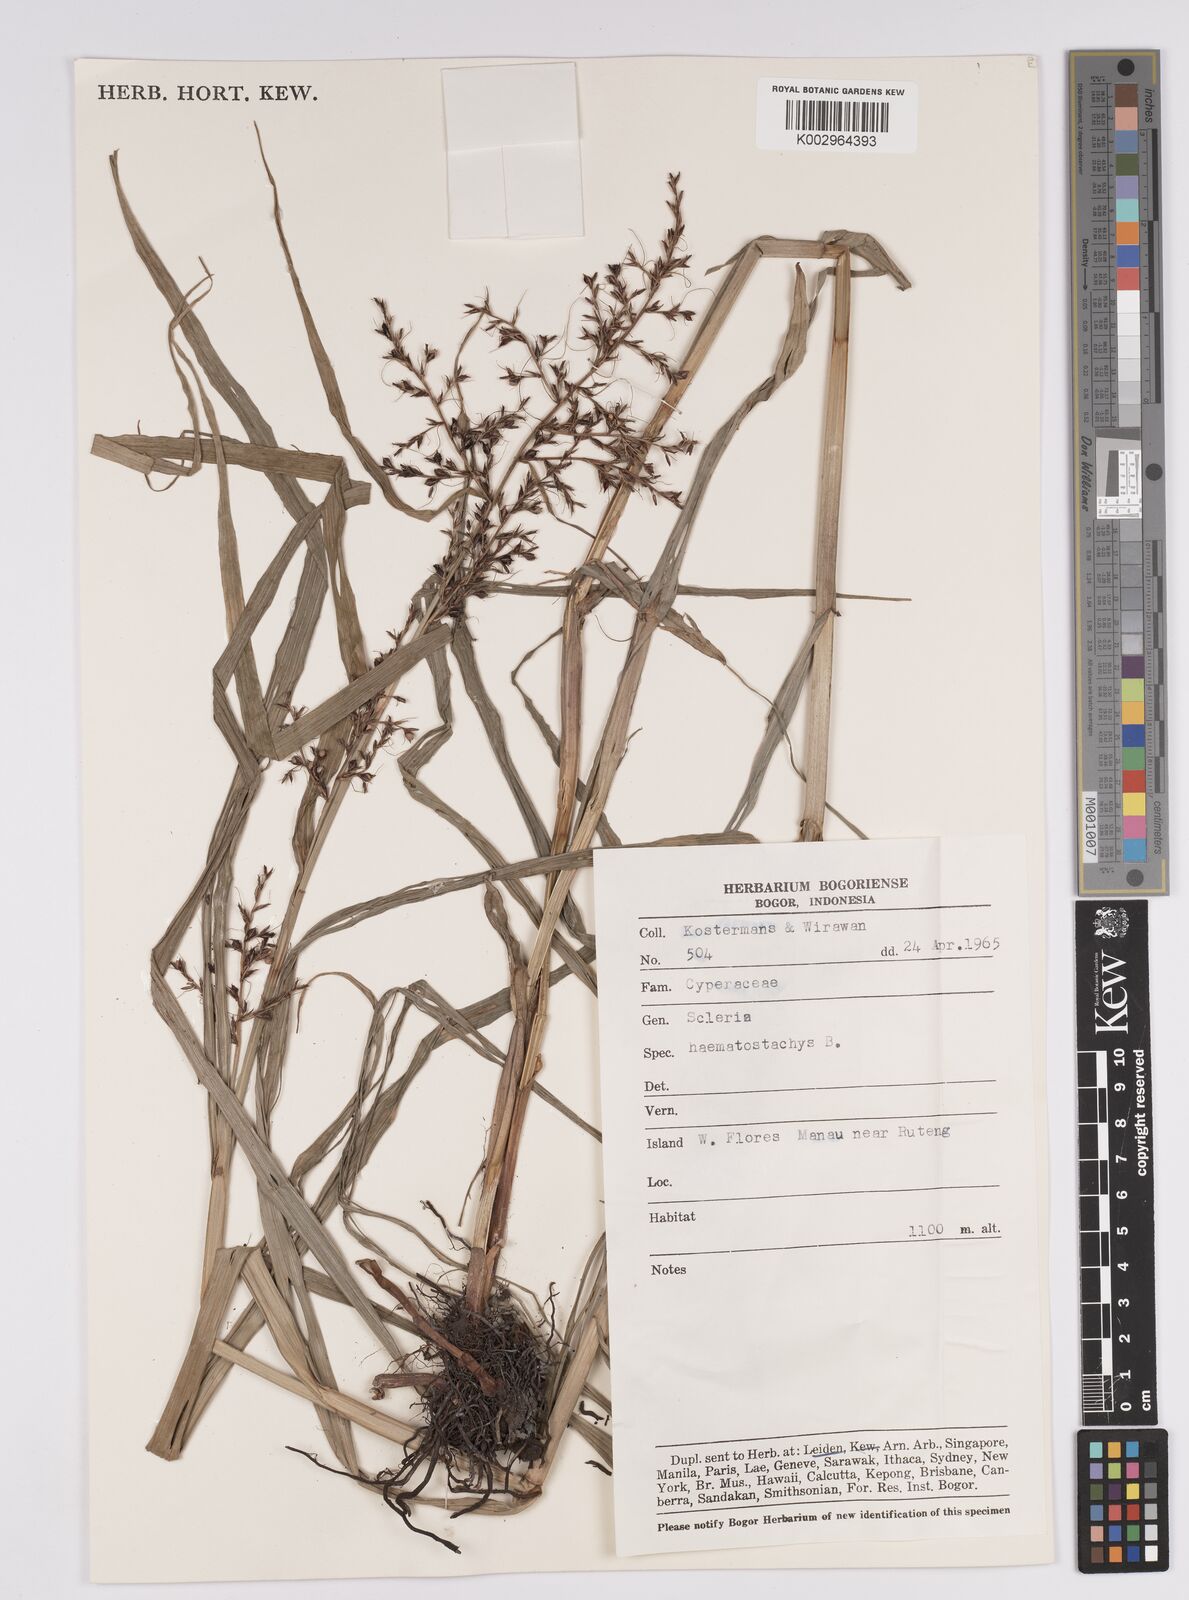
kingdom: Plantae
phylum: Tracheophyta
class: Liliopsida
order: Poales
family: Cyperaceae
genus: Scleria
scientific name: Scleria terrestris
